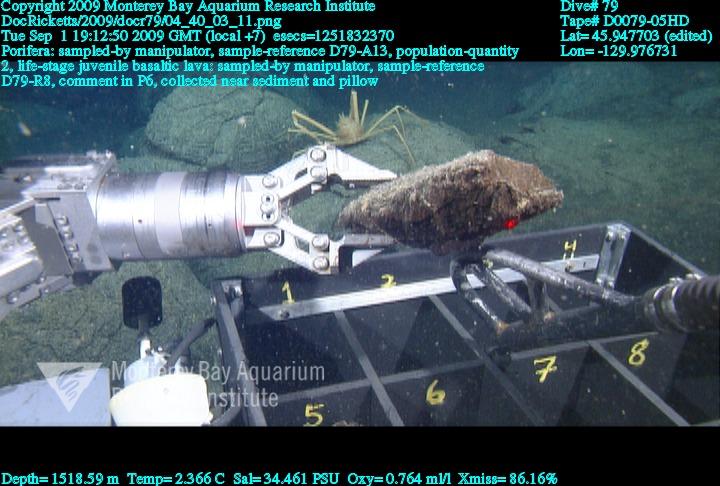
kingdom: Animalia
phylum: Porifera
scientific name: Porifera
